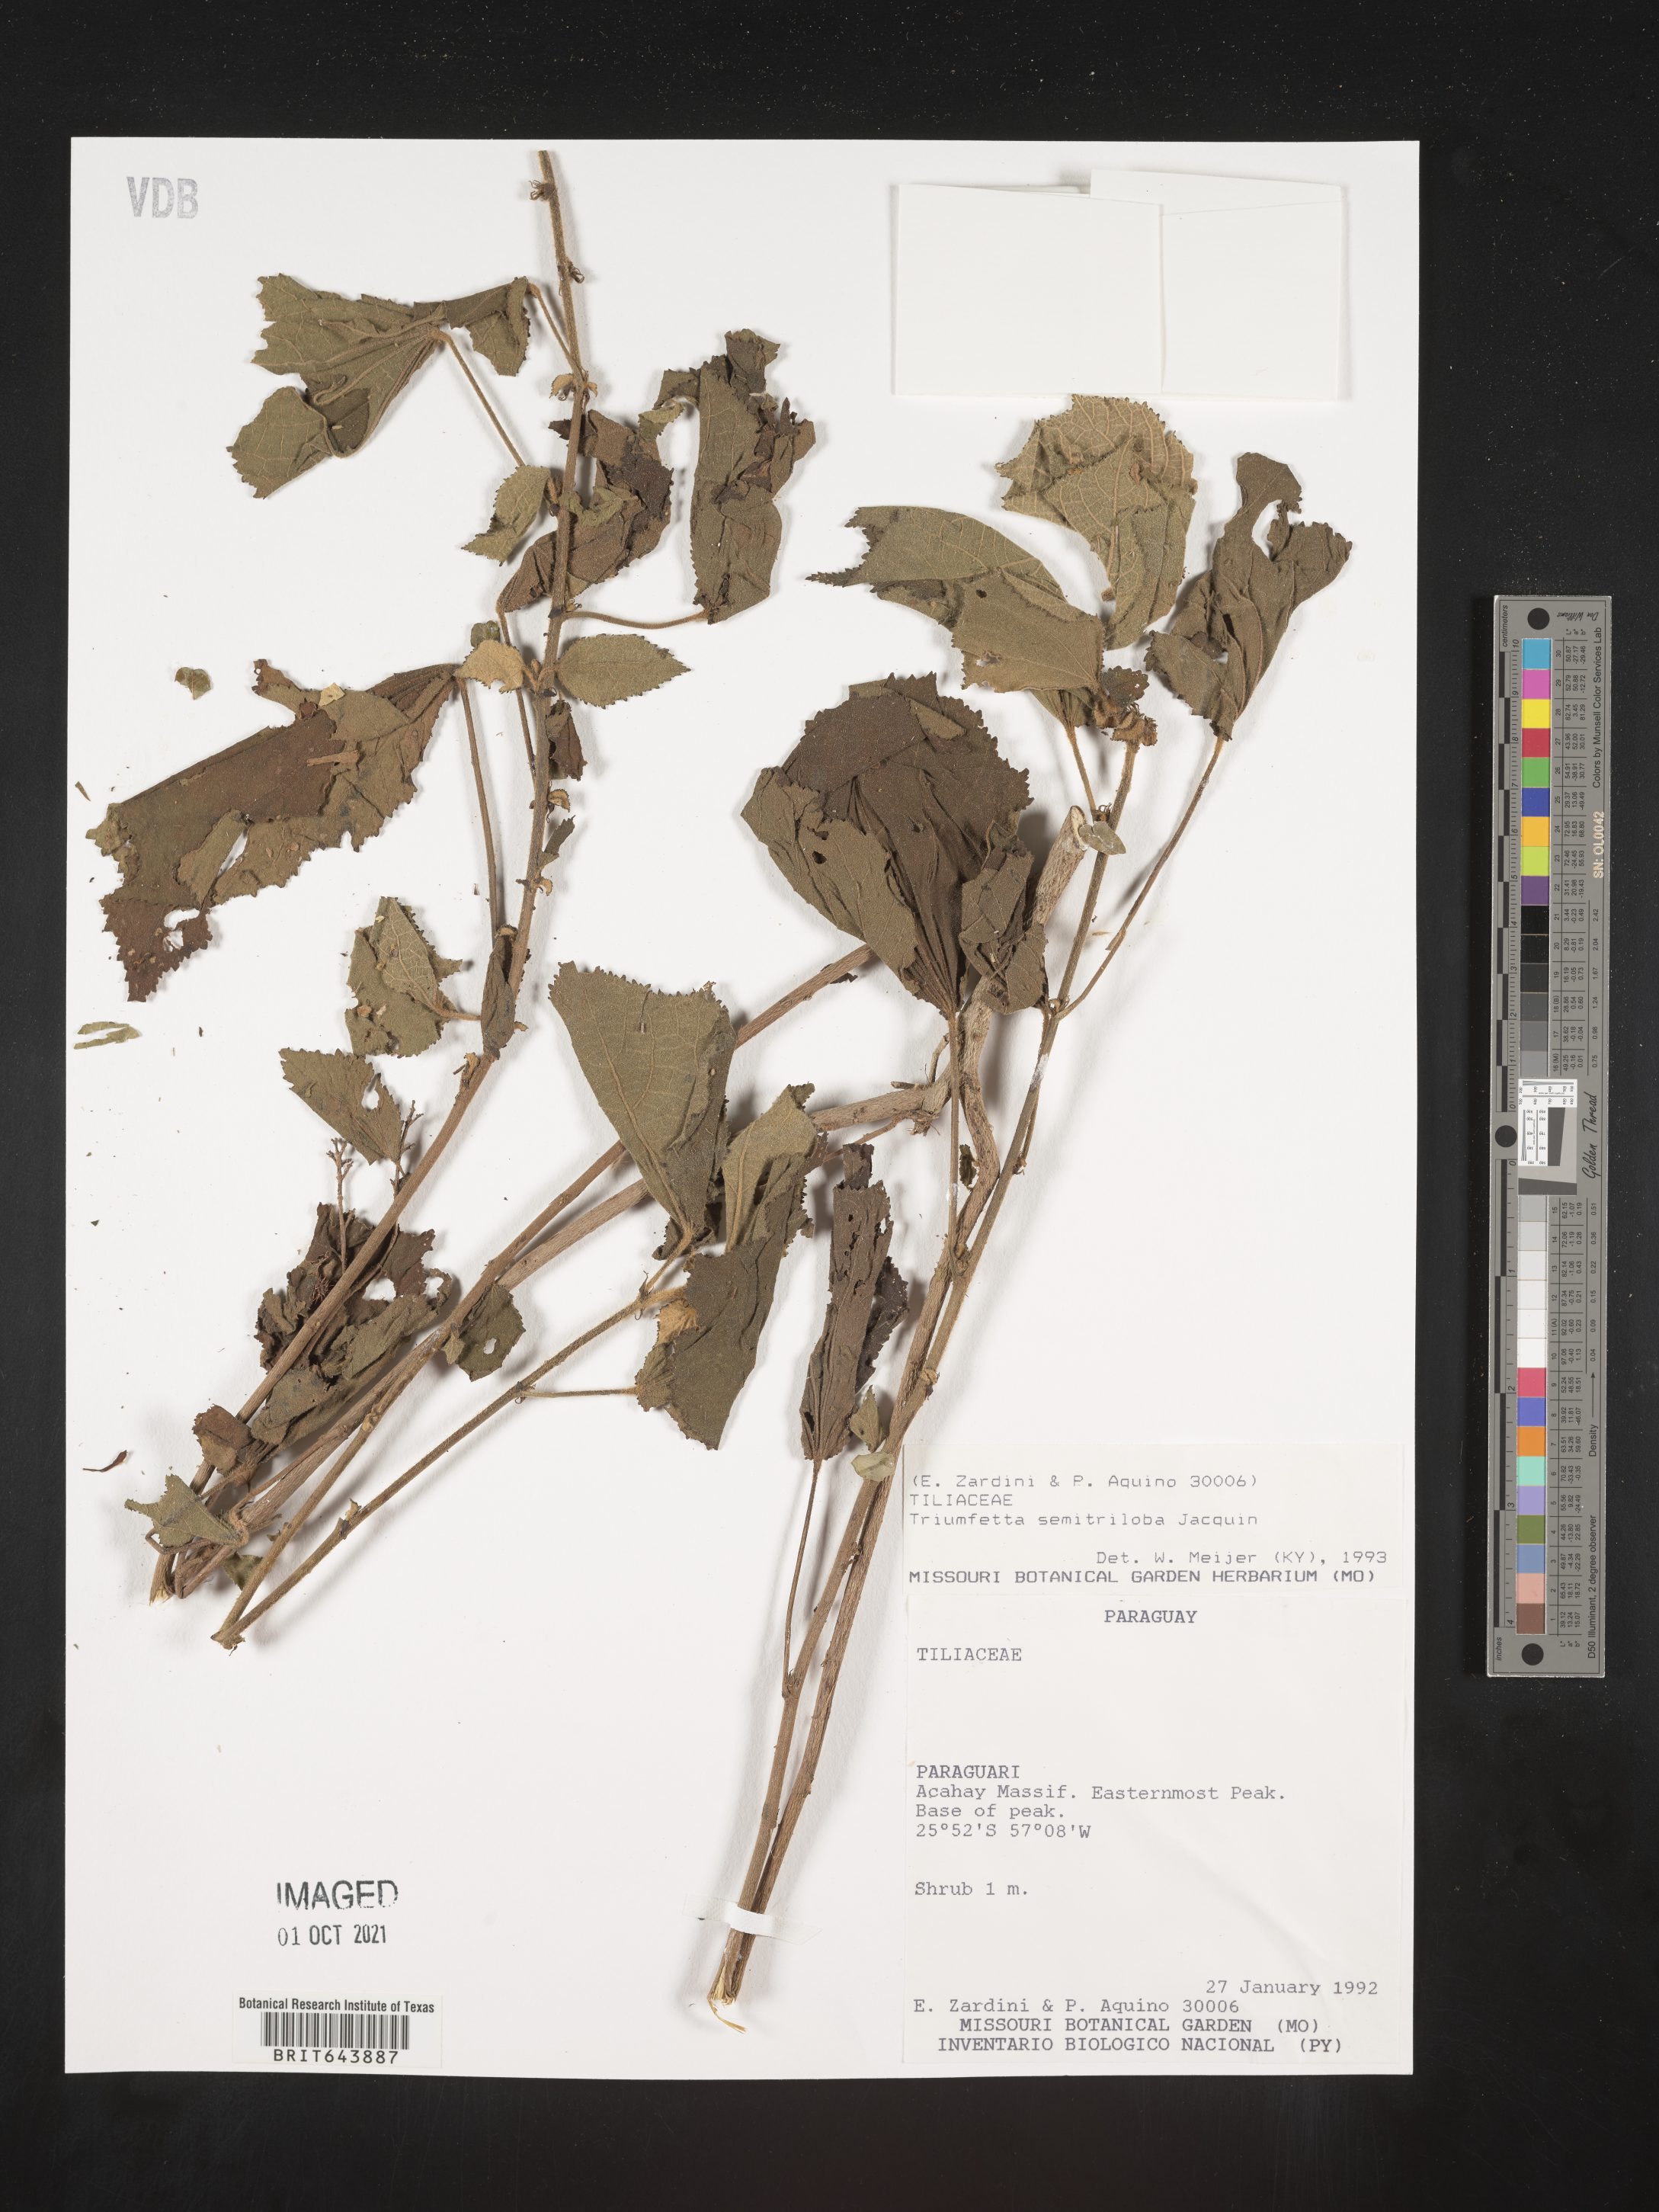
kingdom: Plantae
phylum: Tracheophyta
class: Magnoliopsida
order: Malvales
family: Malvaceae
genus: Triumfetta
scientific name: Triumfetta
